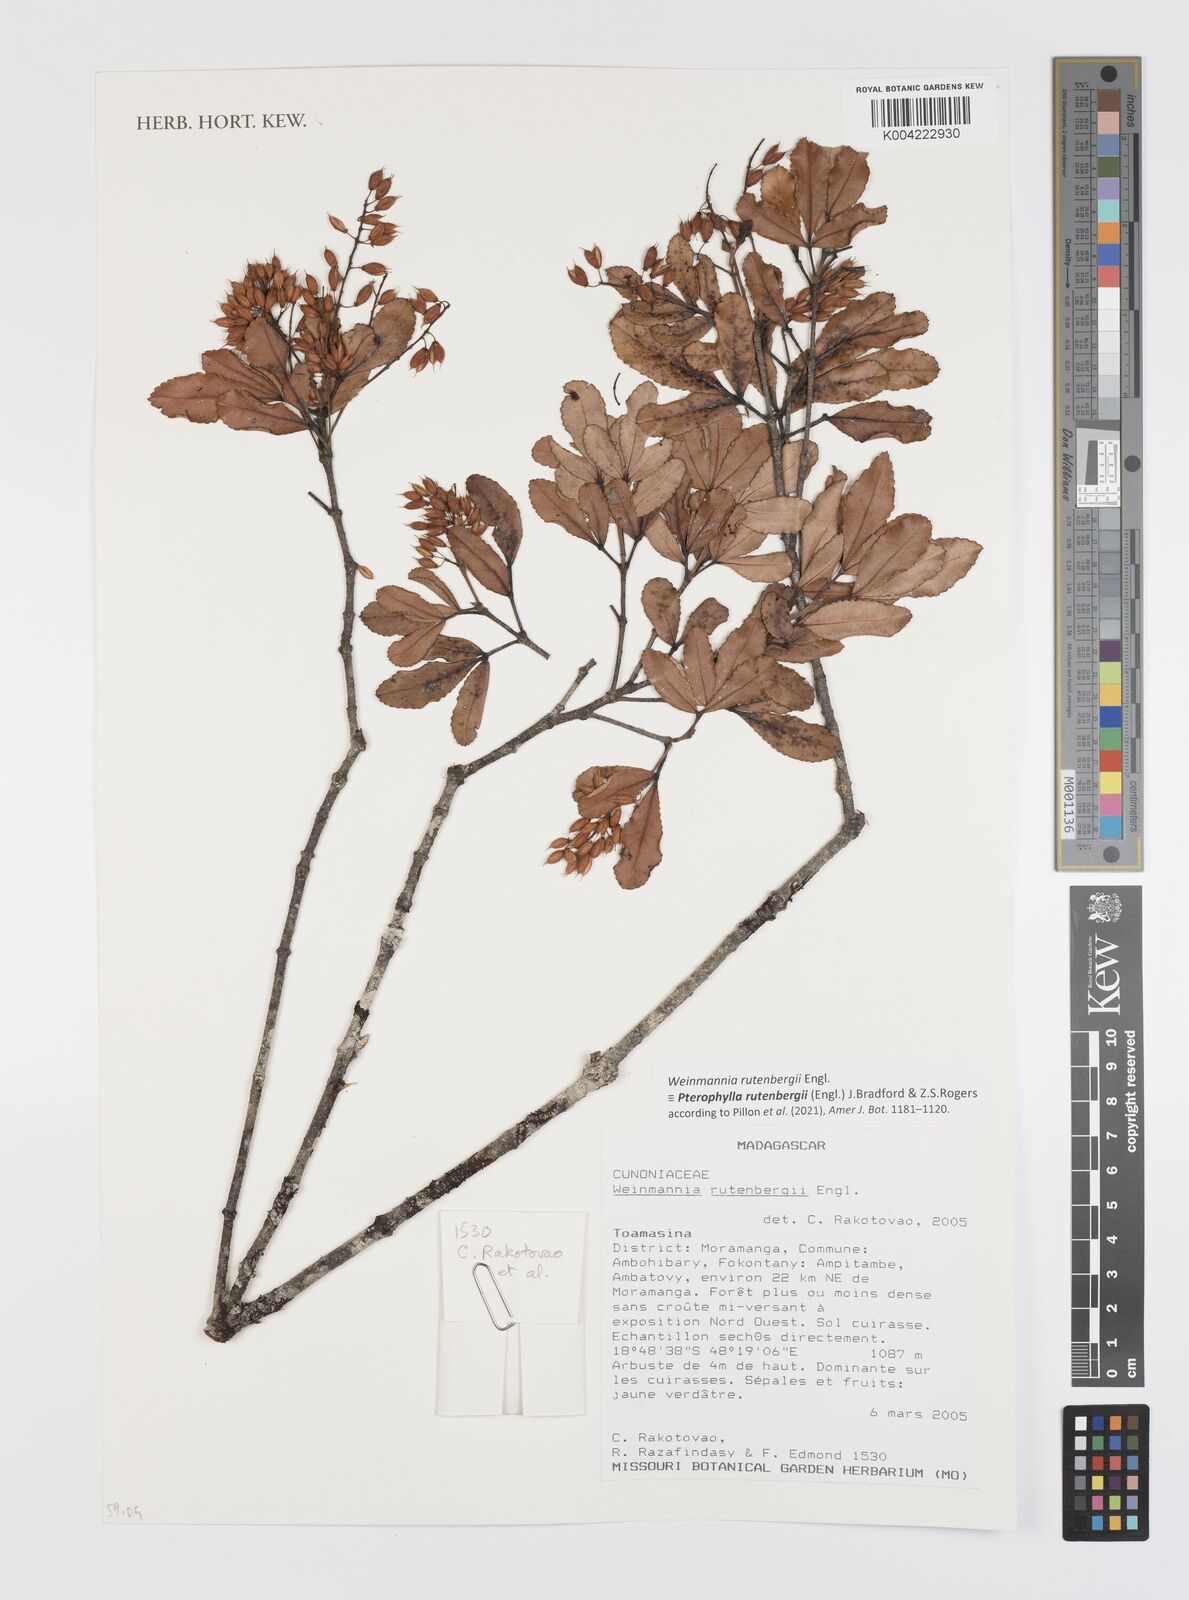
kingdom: Plantae
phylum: Tracheophyta
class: Magnoliopsida
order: Oxalidales
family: Cunoniaceae
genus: Pterophylla
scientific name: Pterophylla rutenbergii
